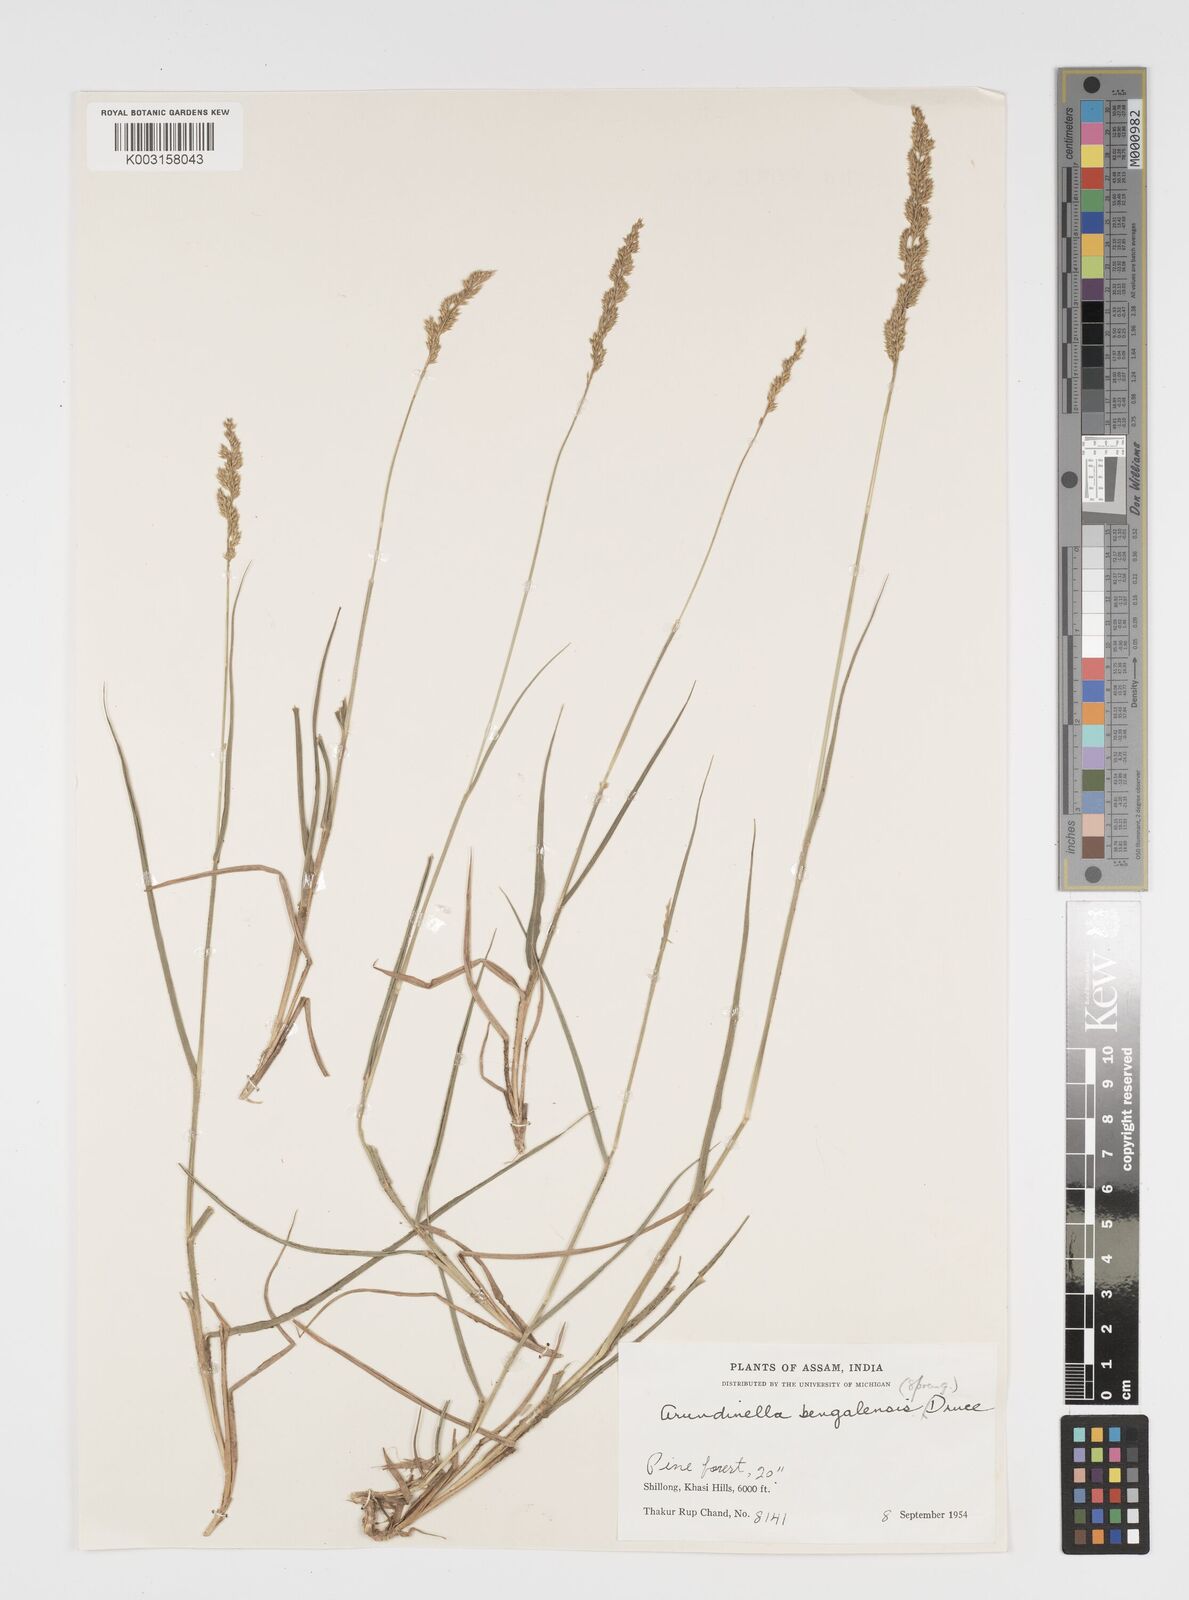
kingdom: Plantae
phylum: Tracheophyta
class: Liliopsida
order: Poales
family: Poaceae
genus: Arundinella
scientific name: Arundinella bengalensis
